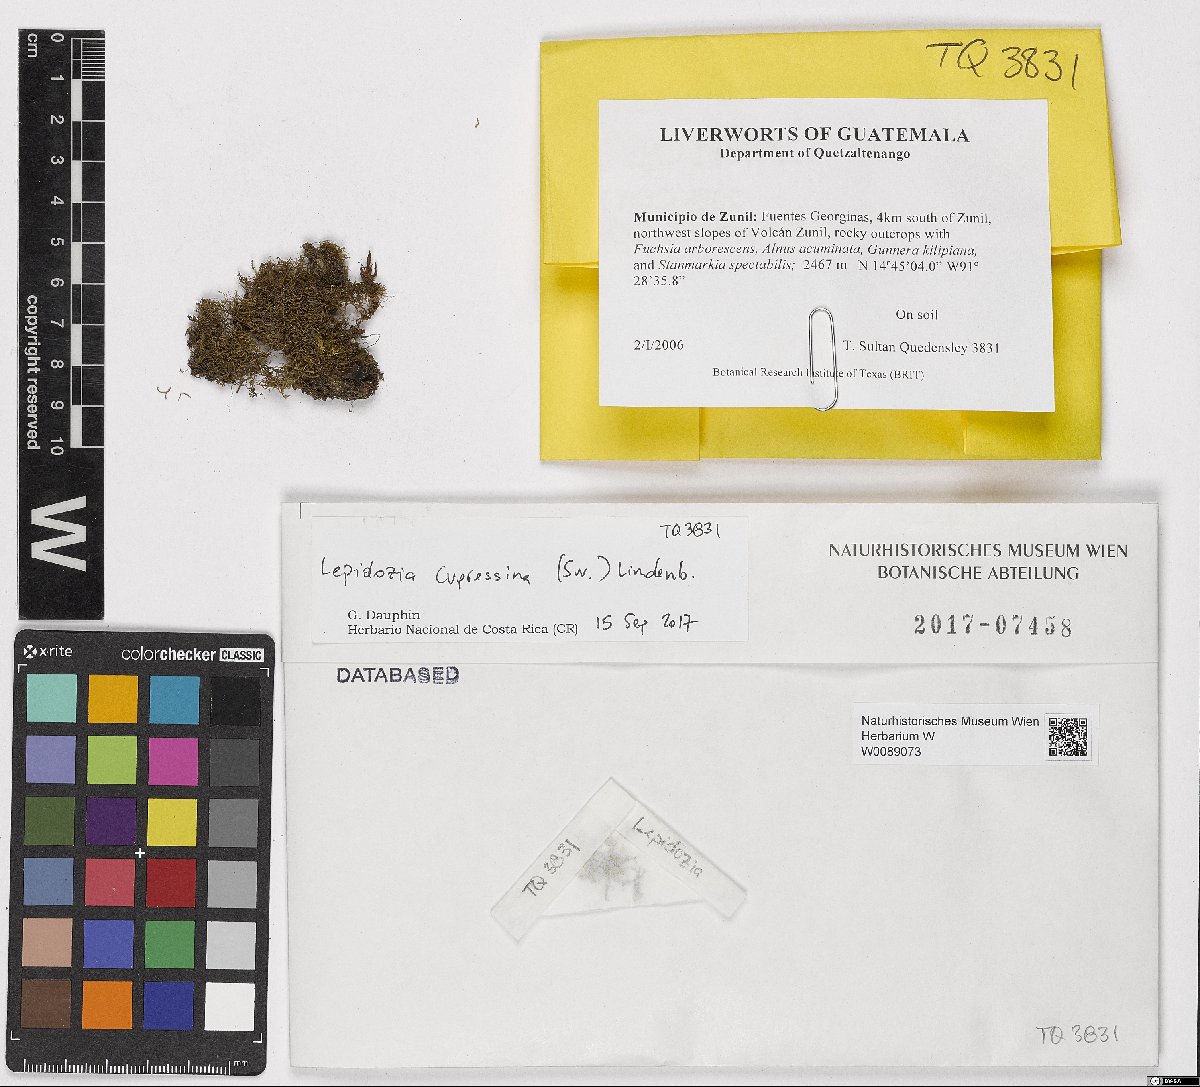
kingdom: Plantae
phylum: Marchantiophyta
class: Jungermanniopsida
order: Jungermanniales
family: Lepidoziaceae
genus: Lepidozia
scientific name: Lepidozia cupressina
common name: Rock fingerwort
